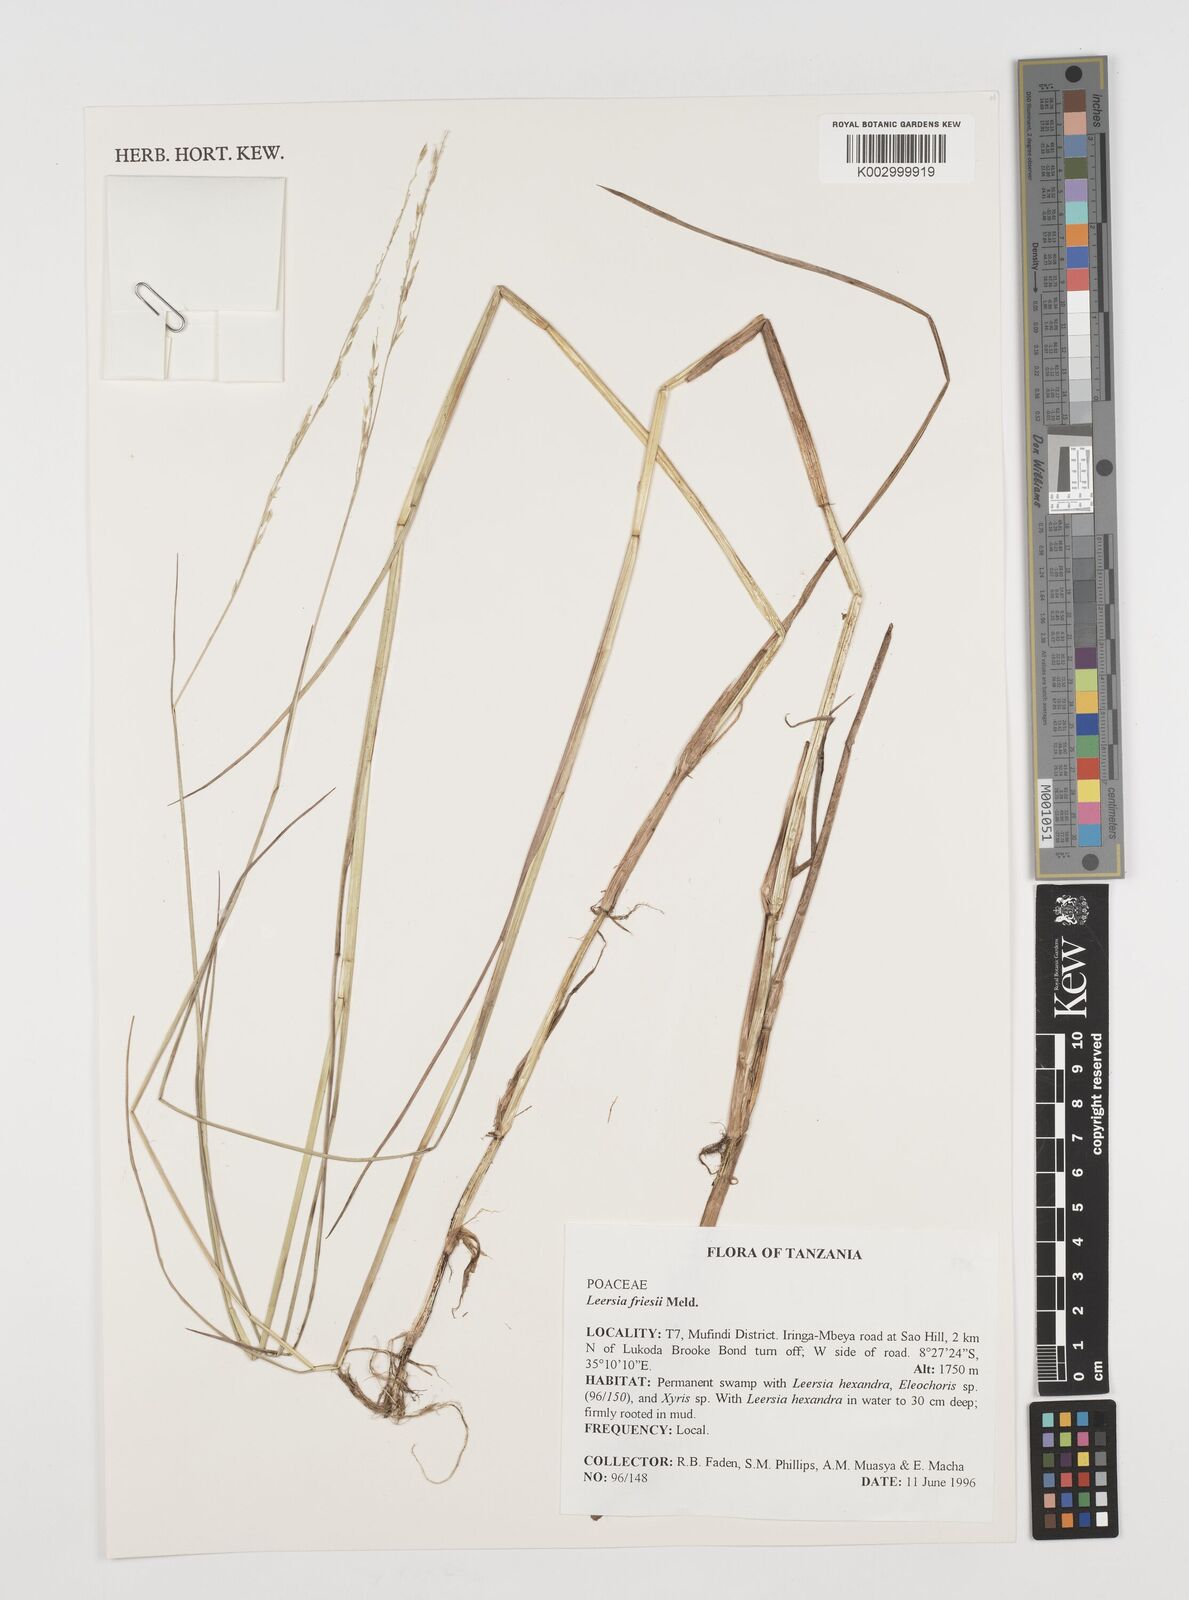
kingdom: Plantae
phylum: Tracheophyta
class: Liliopsida
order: Poales
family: Poaceae
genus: Leersia
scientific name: Leersia friesii
